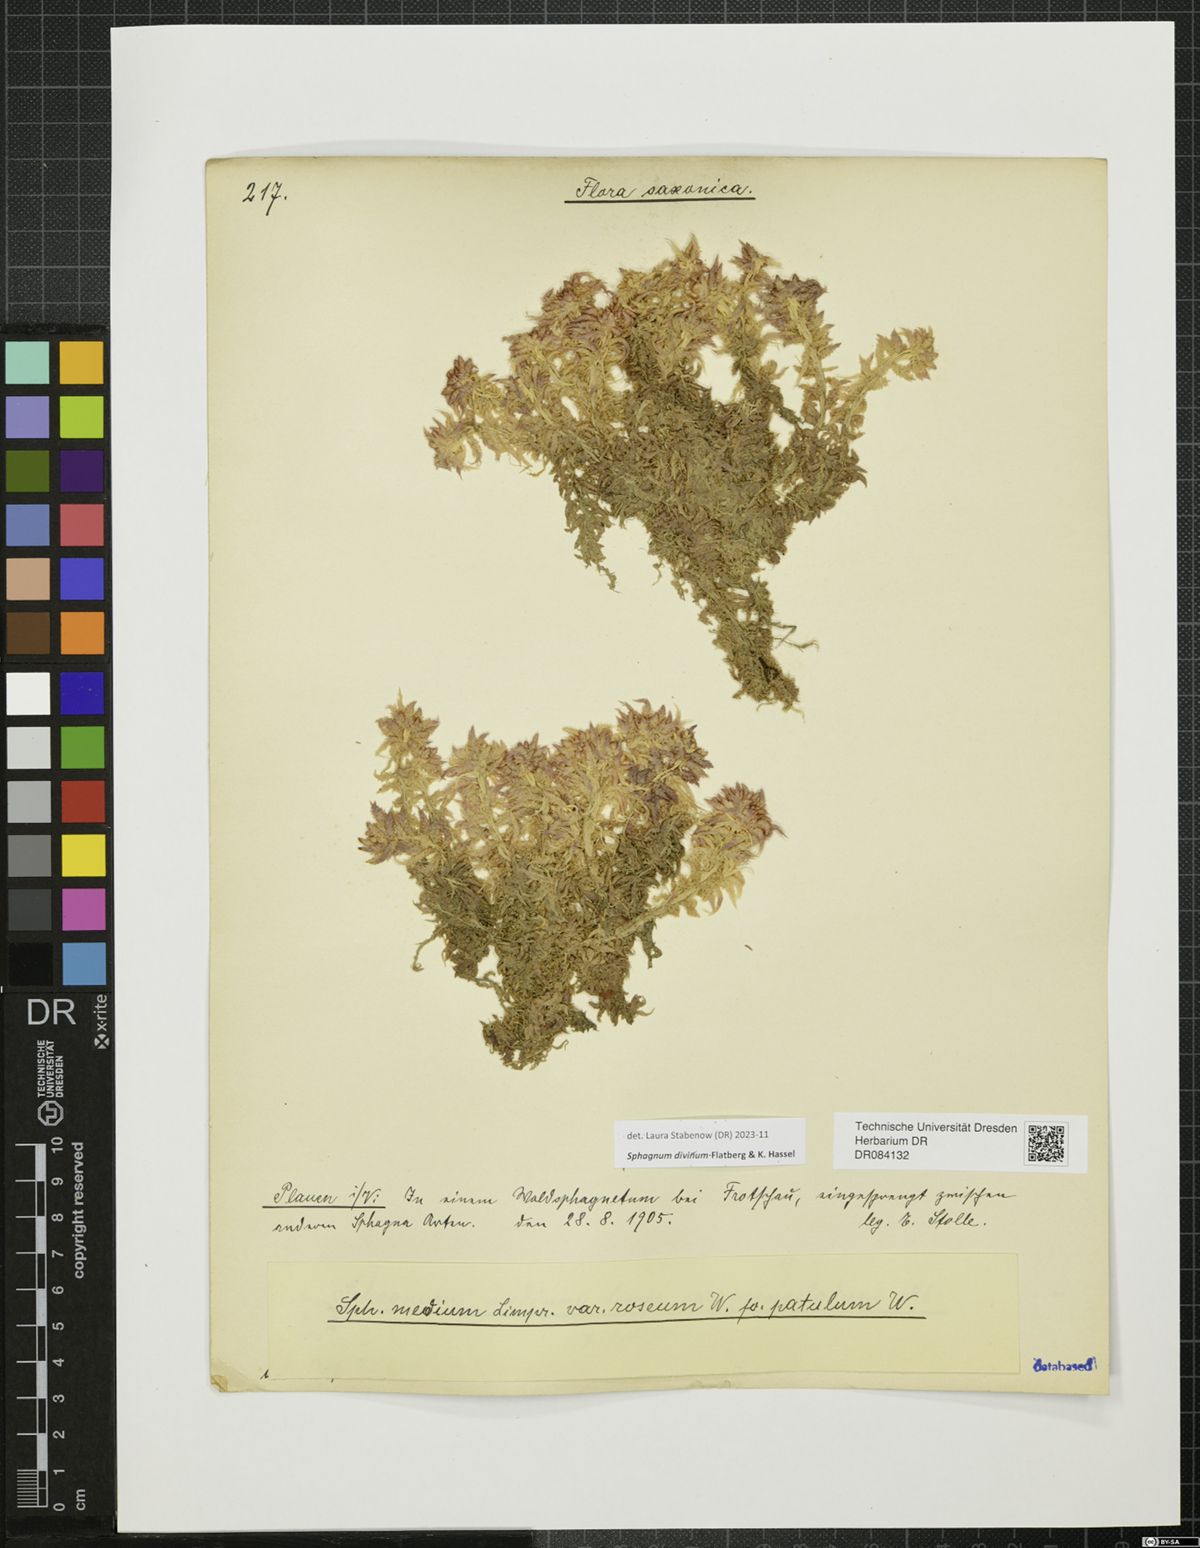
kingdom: Plantae
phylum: Bryophyta
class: Sphagnopsida
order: Sphagnales
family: Sphagnaceae
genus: Sphagnum
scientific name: Sphagnum divinum
